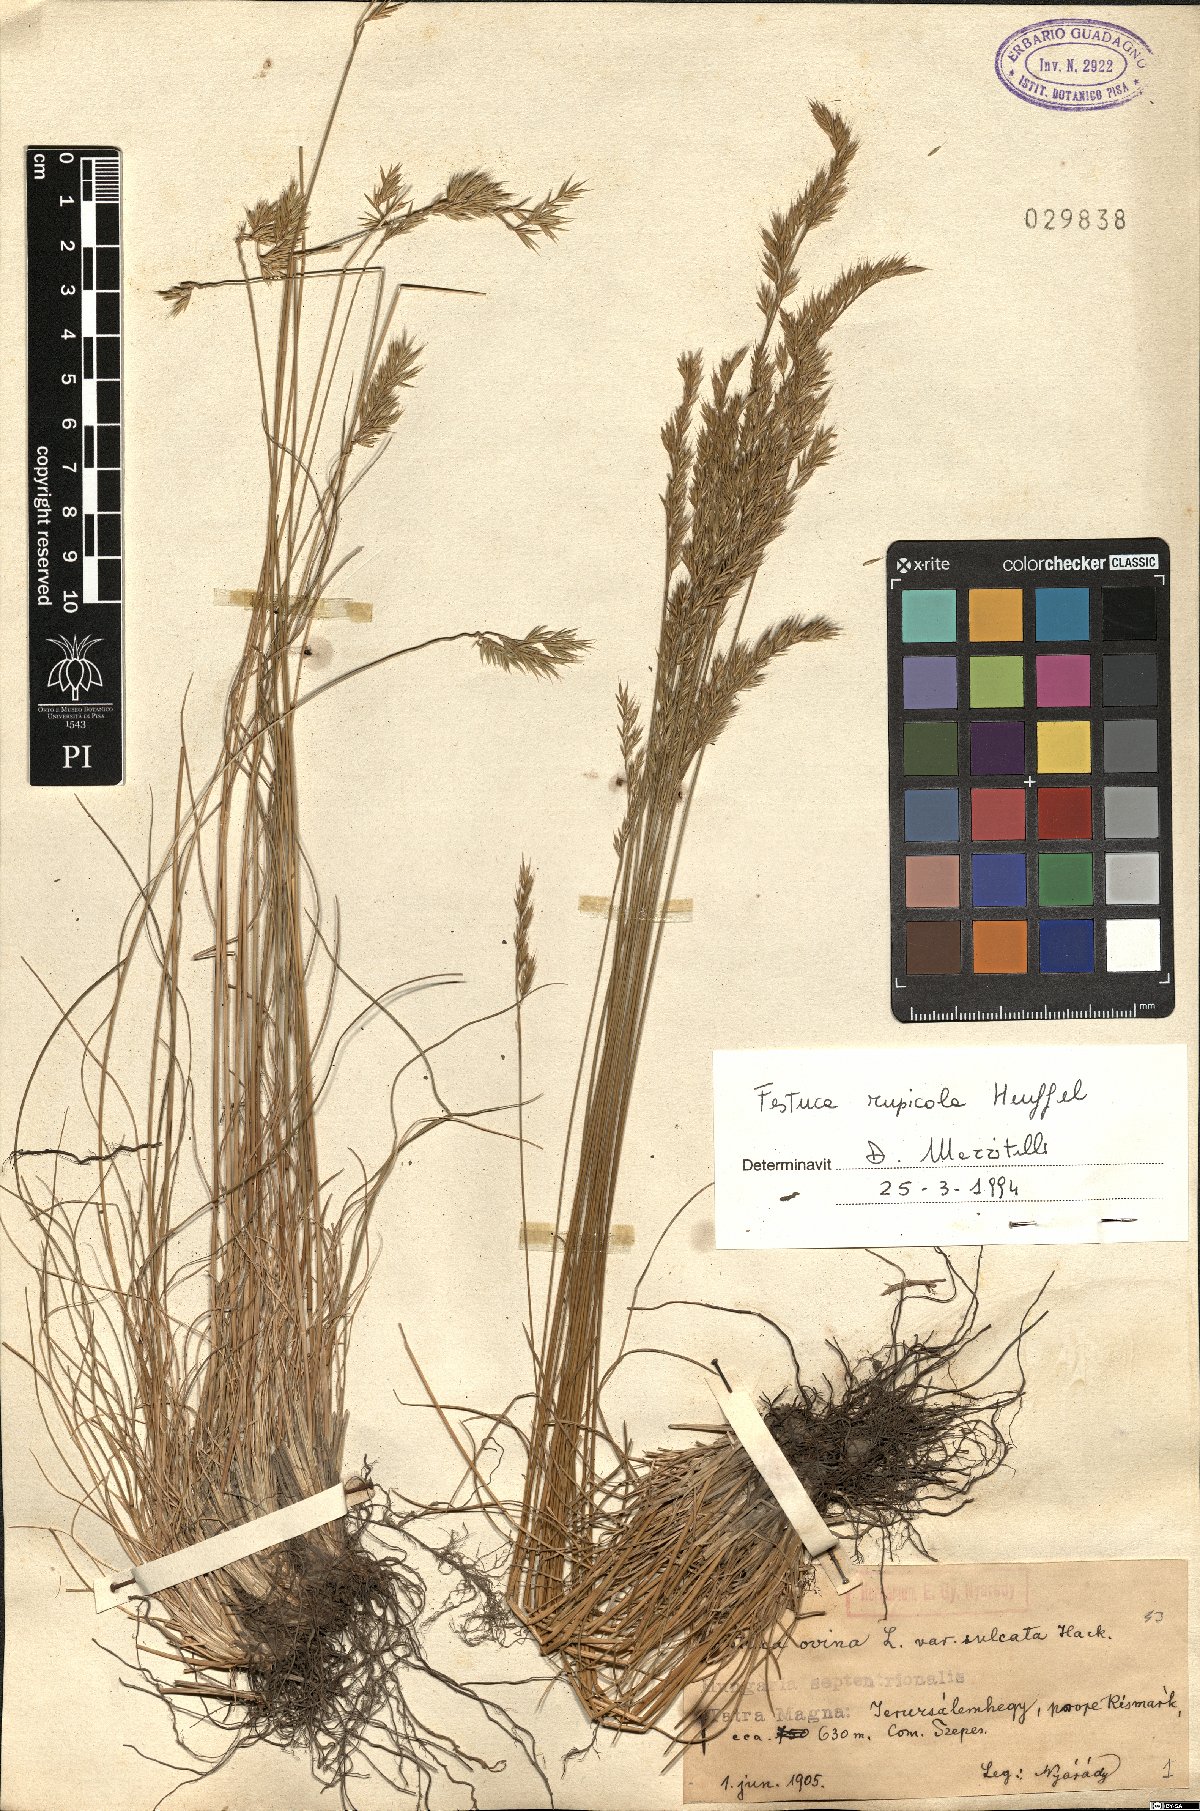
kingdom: Plantae
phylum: Tracheophyta
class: Liliopsida
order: Poales
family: Poaceae
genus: Festuca
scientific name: Festuca rupicola
